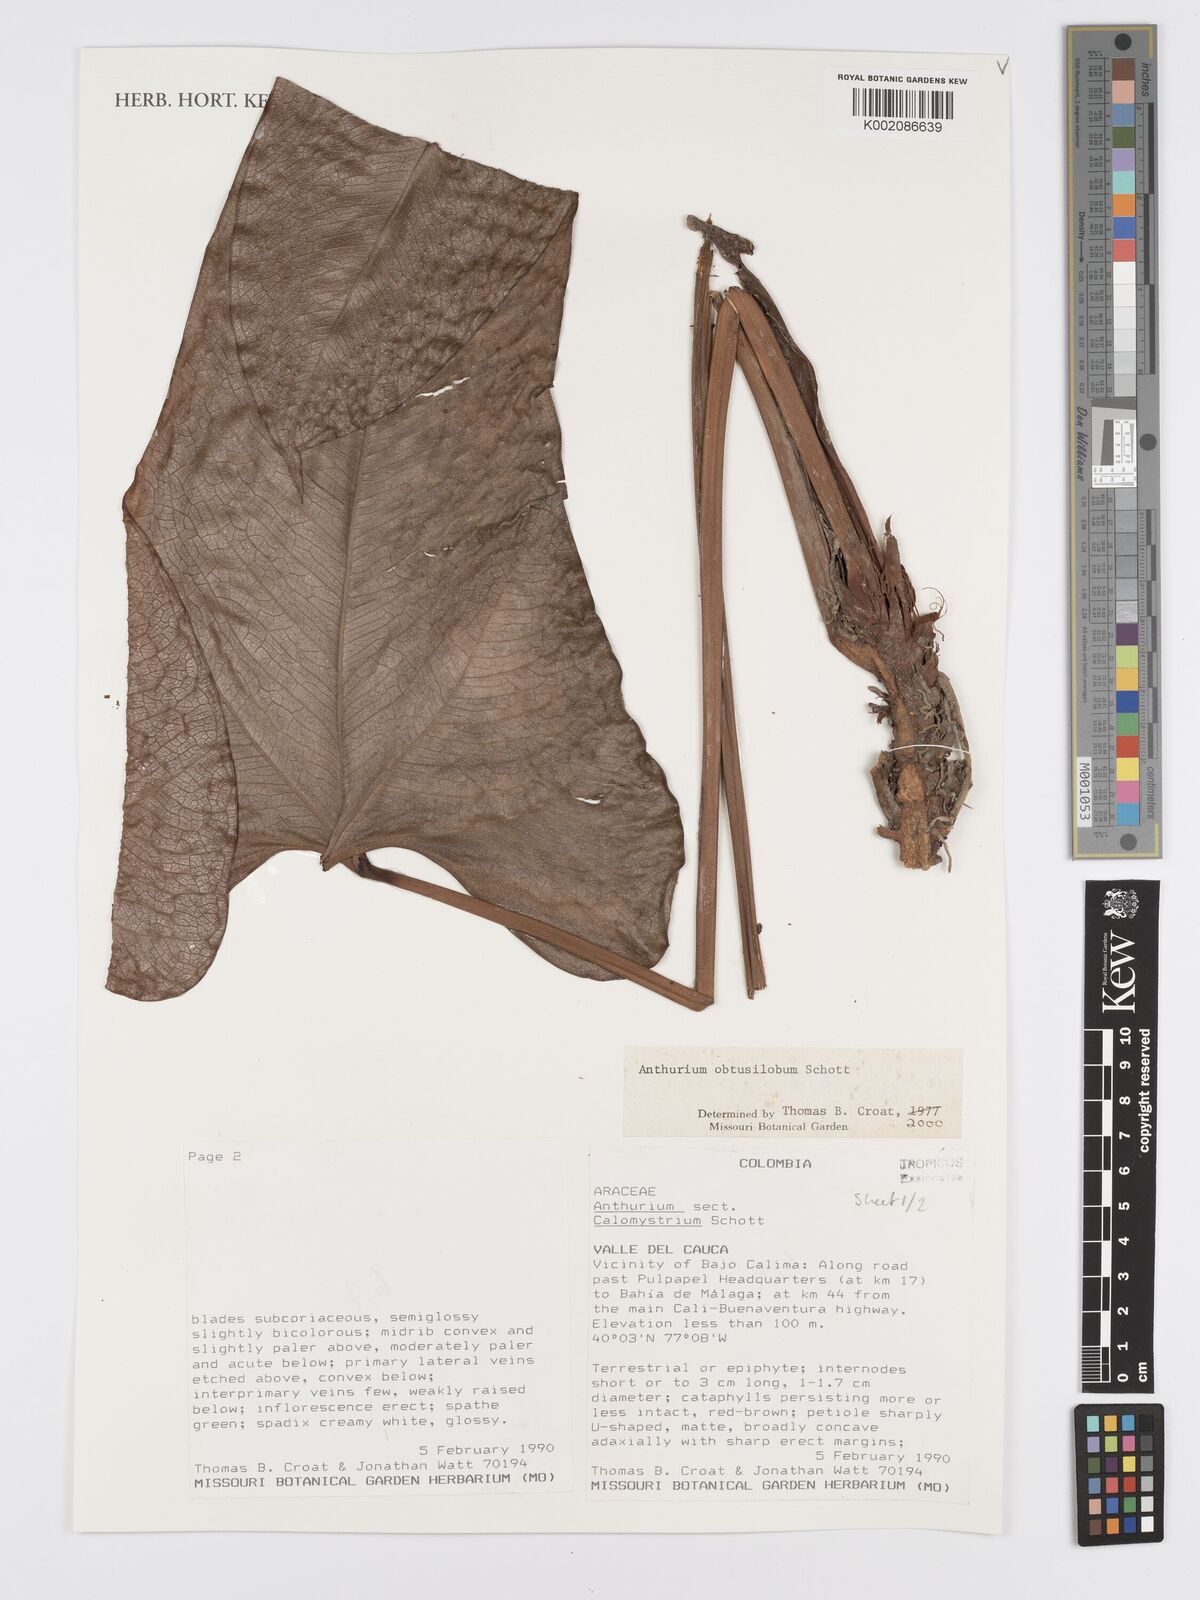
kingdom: Plantae
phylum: Tracheophyta
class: Liliopsida
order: Alismatales
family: Araceae
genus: Anthurium
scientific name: Anthurium obtusilobum
